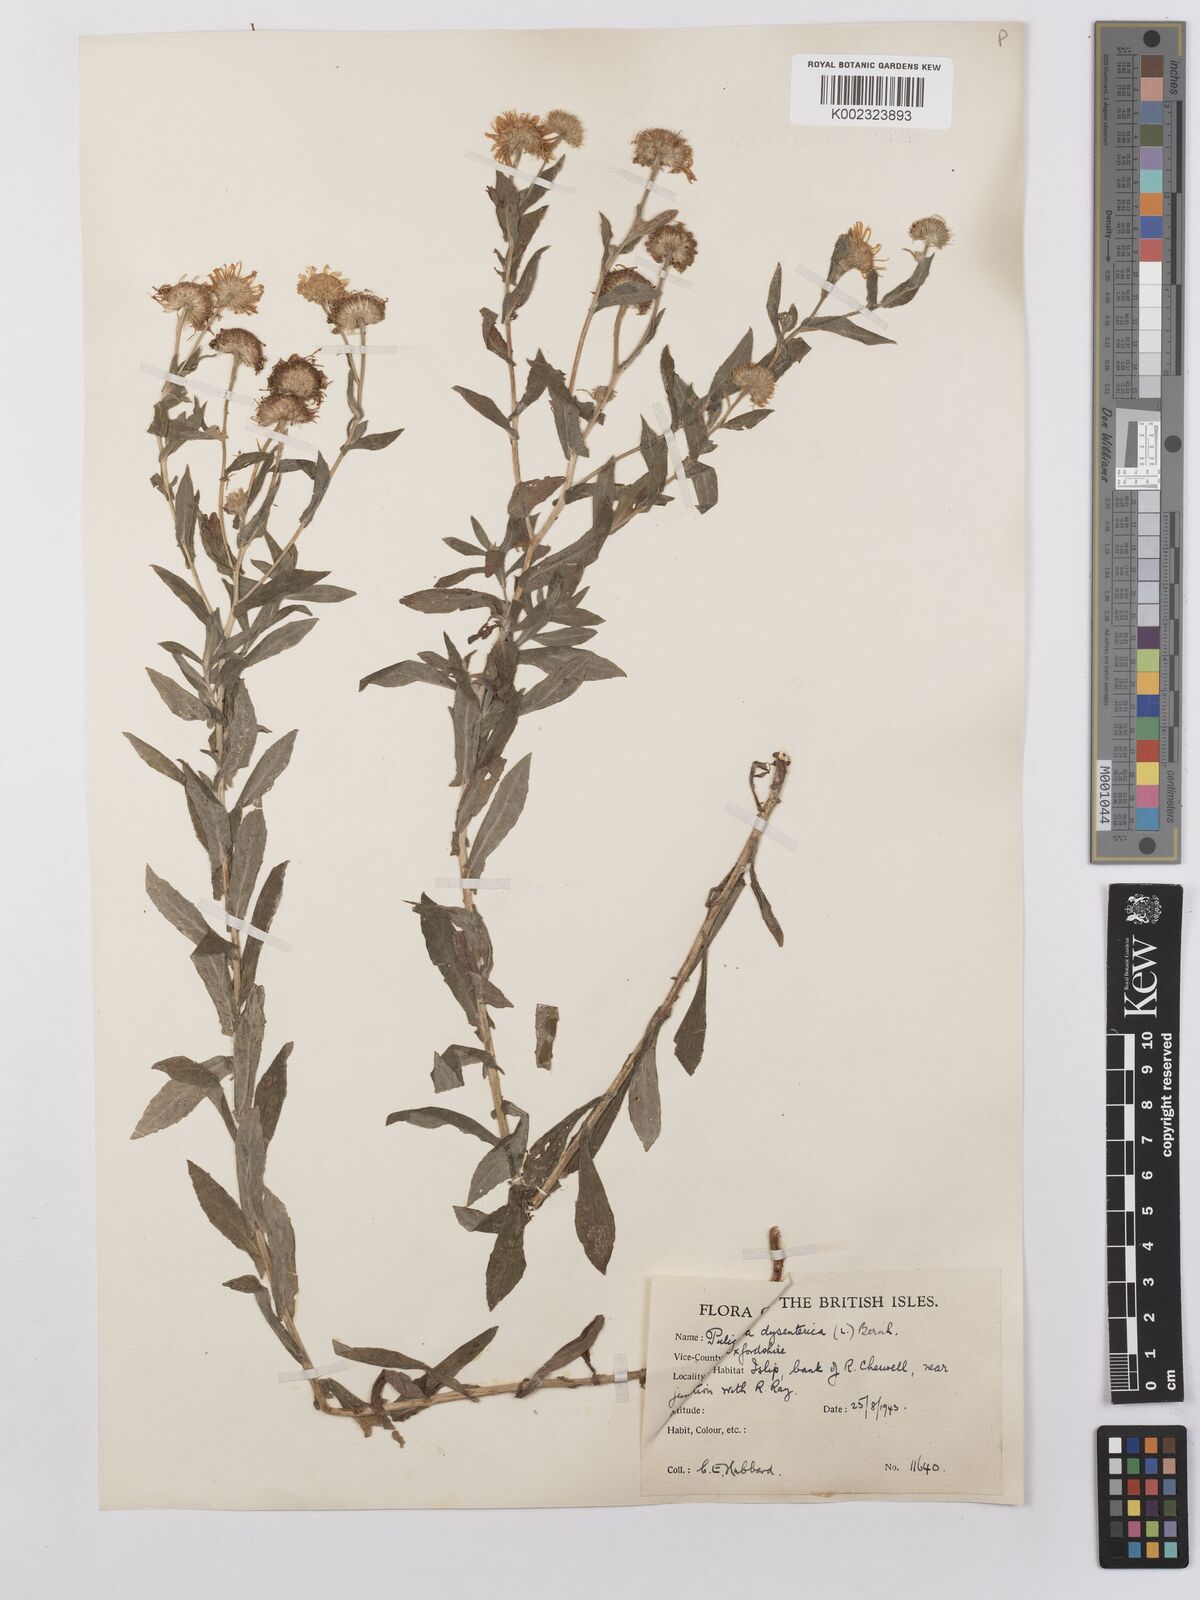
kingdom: Plantae
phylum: Tracheophyta
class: Magnoliopsida
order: Asterales
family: Asteraceae
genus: Pulicaria
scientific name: Pulicaria dysenterica
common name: Common fleabane
